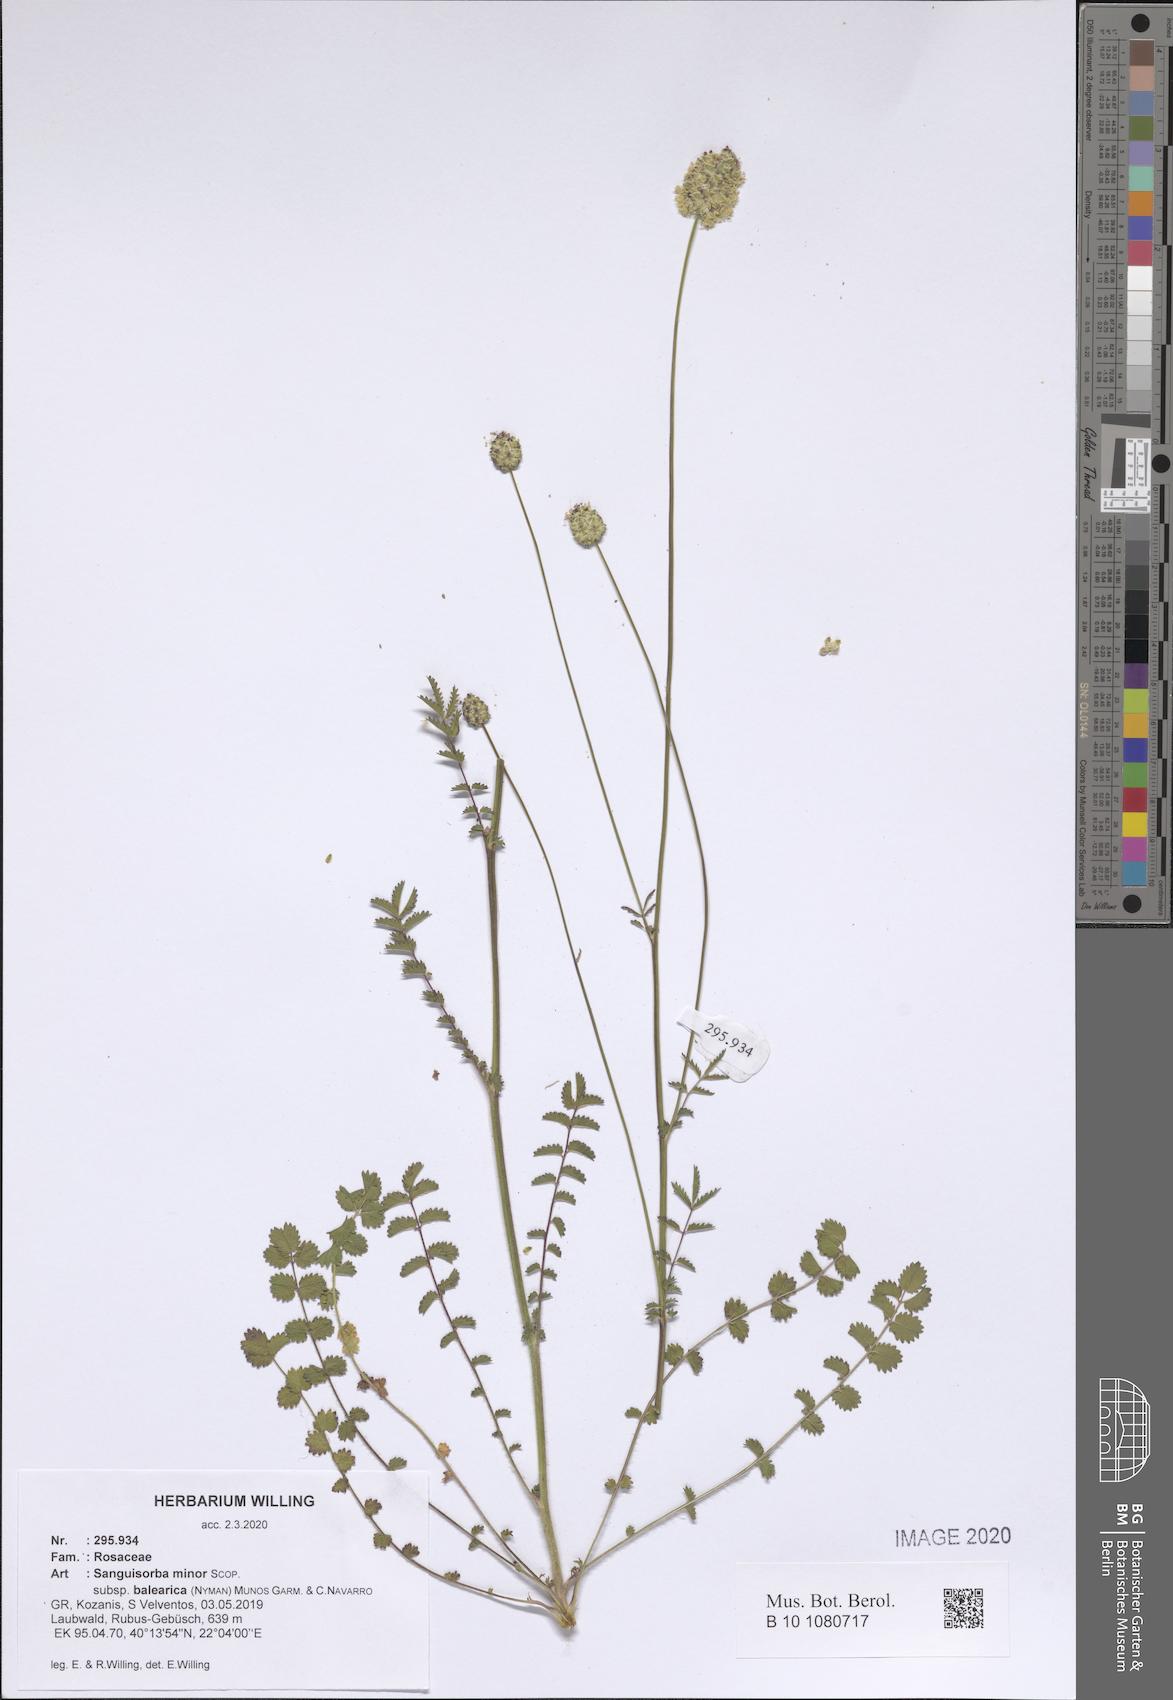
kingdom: Plantae
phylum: Tracheophyta
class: Magnoliopsida
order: Rosales
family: Rosaceae
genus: Poterium
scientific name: Poterium sanguisorba
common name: Salad burnet
